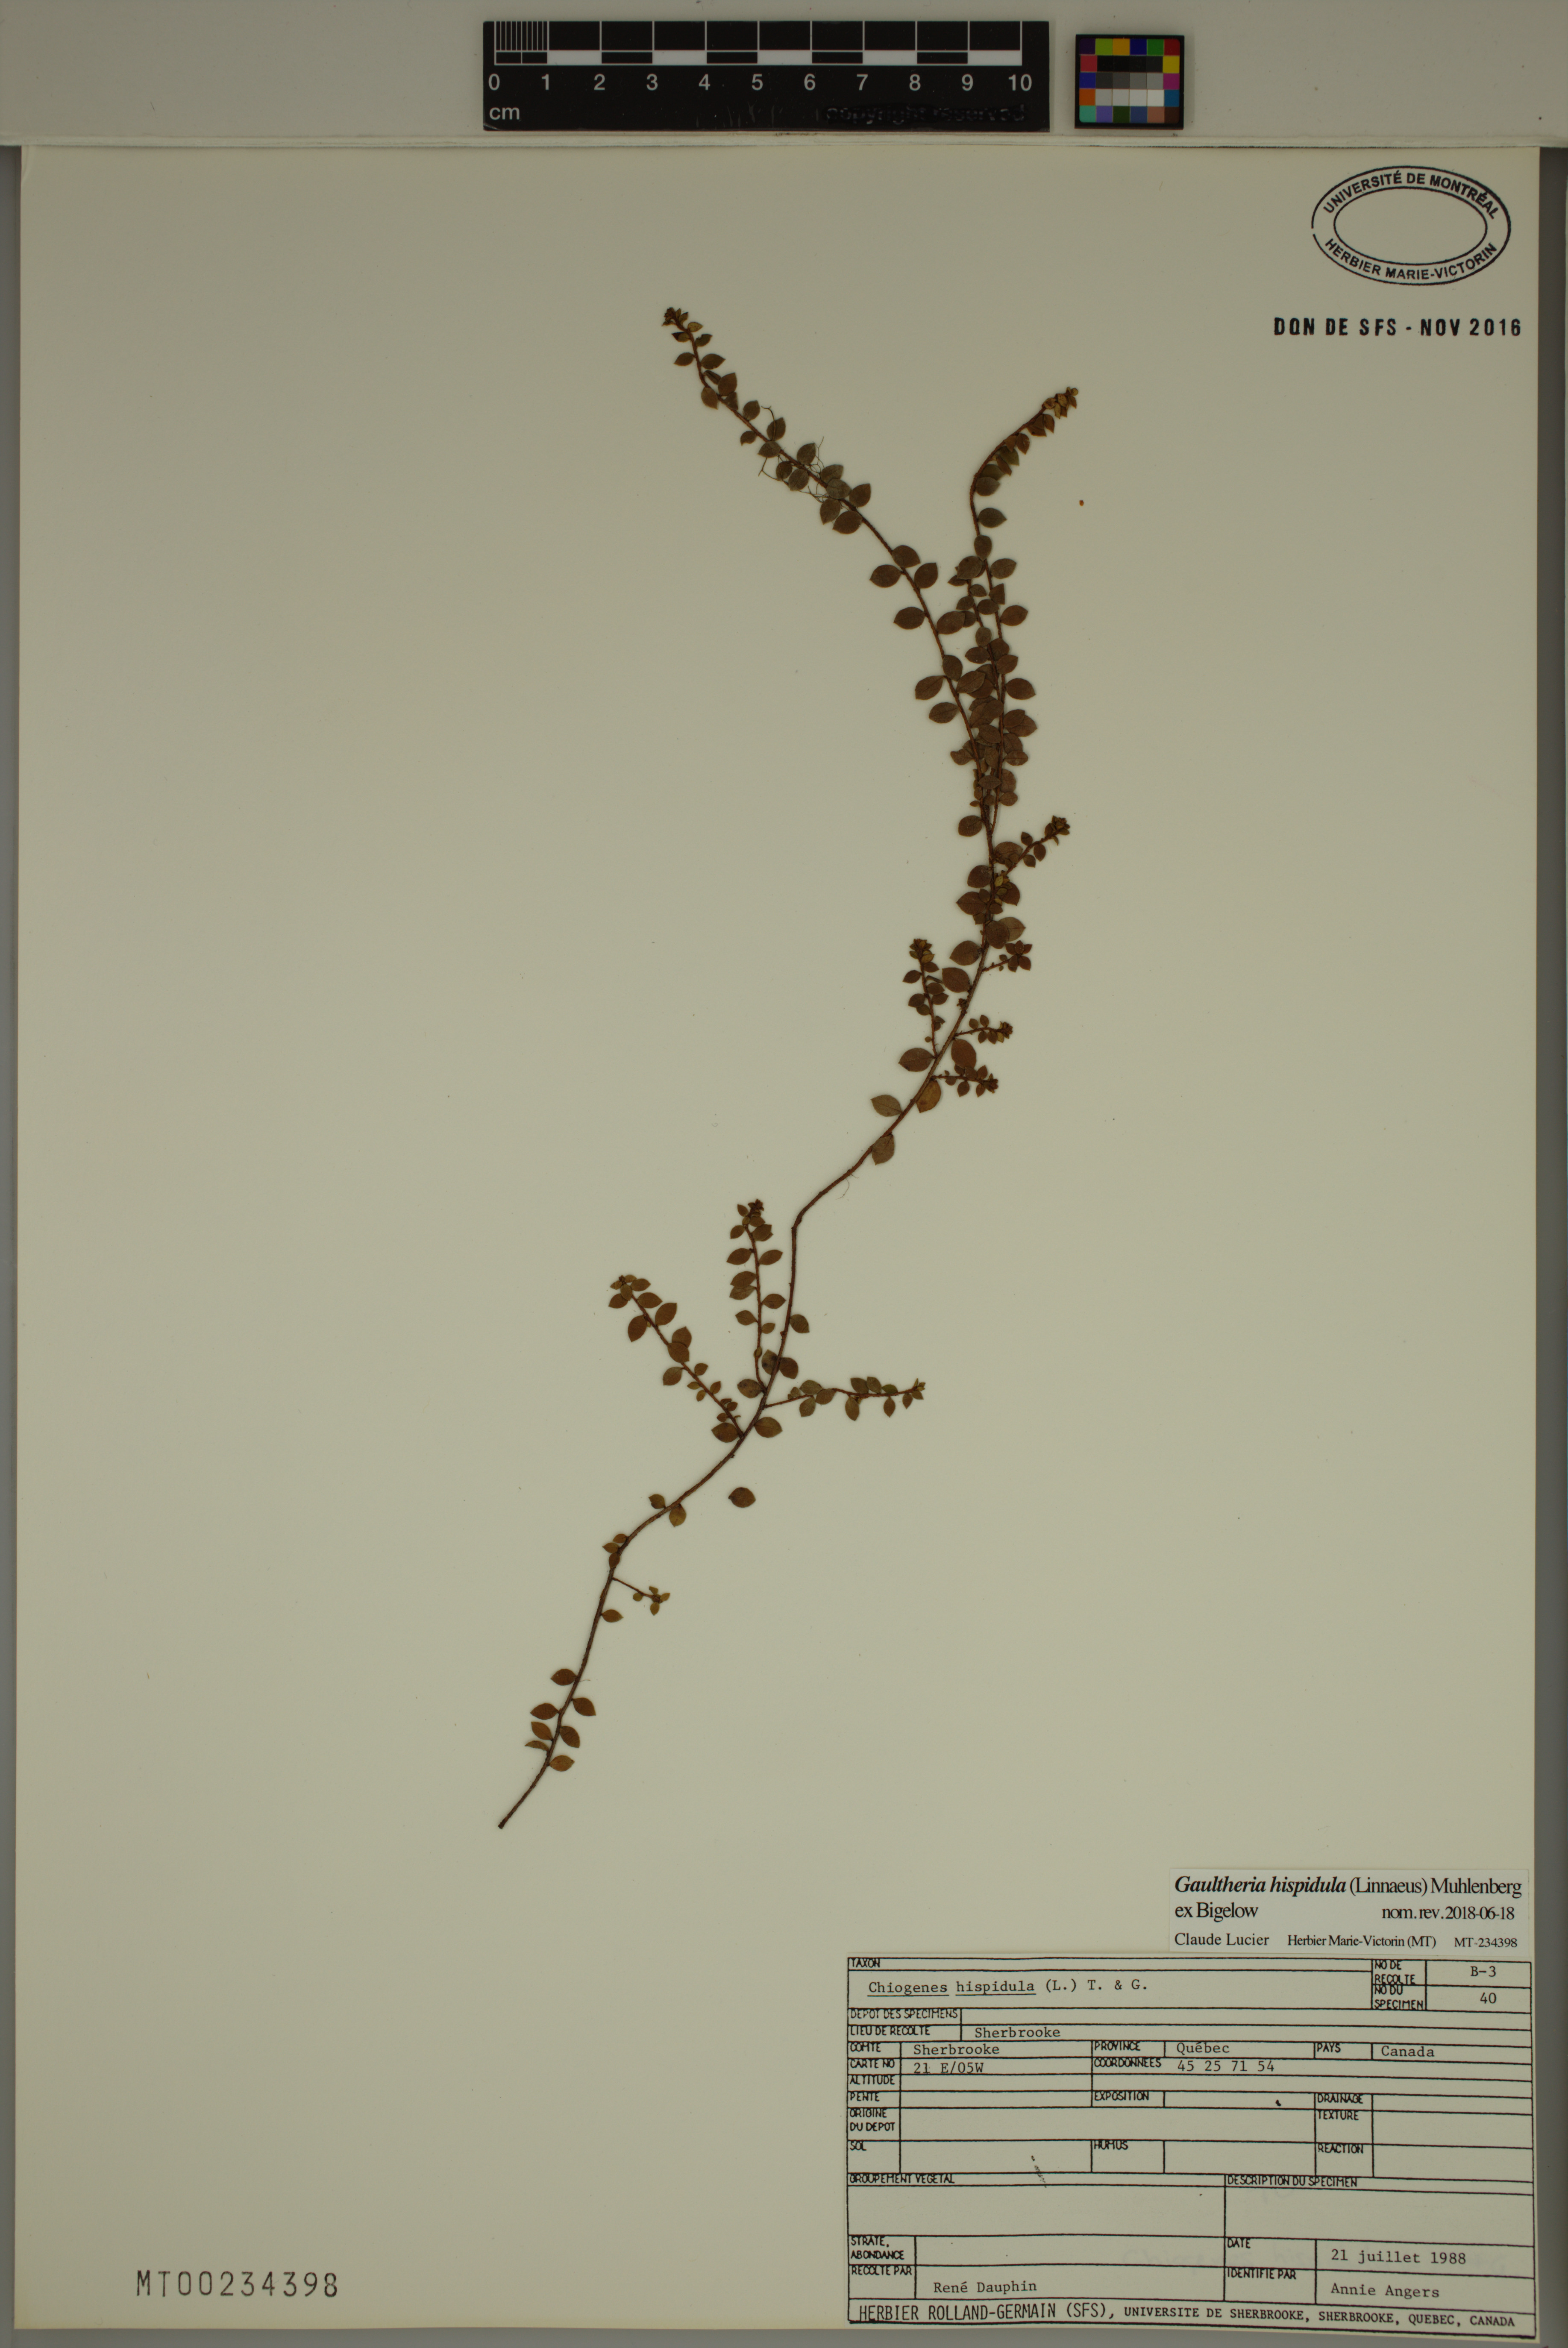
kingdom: Plantae
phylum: Tracheophyta
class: Magnoliopsida
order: Ericales
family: Ericaceae
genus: Gaultheria
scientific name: Gaultheria hispidula
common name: Cancer wintergreen
